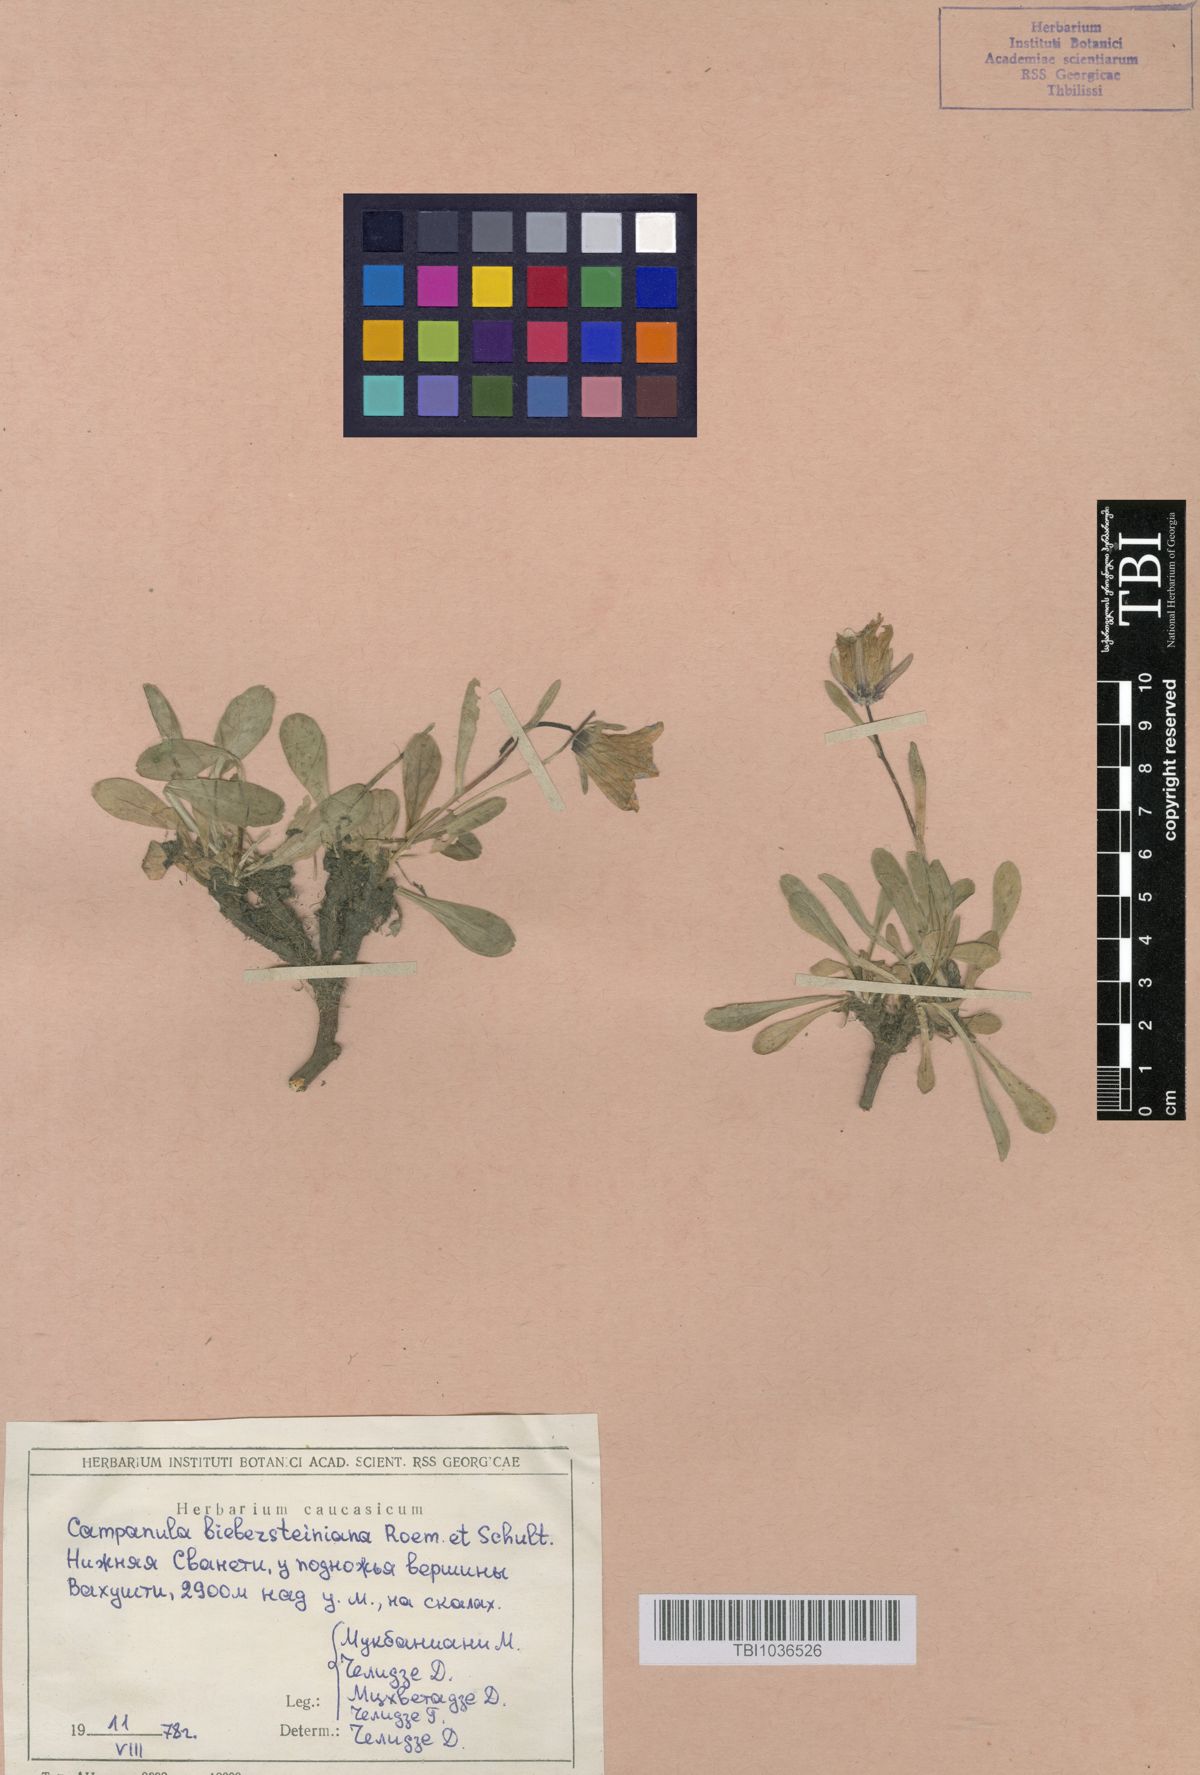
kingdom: Plantae
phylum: Tracheophyta
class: Magnoliopsida
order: Asterales
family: Campanulaceae
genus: Campanula
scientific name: Campanula tridentata
